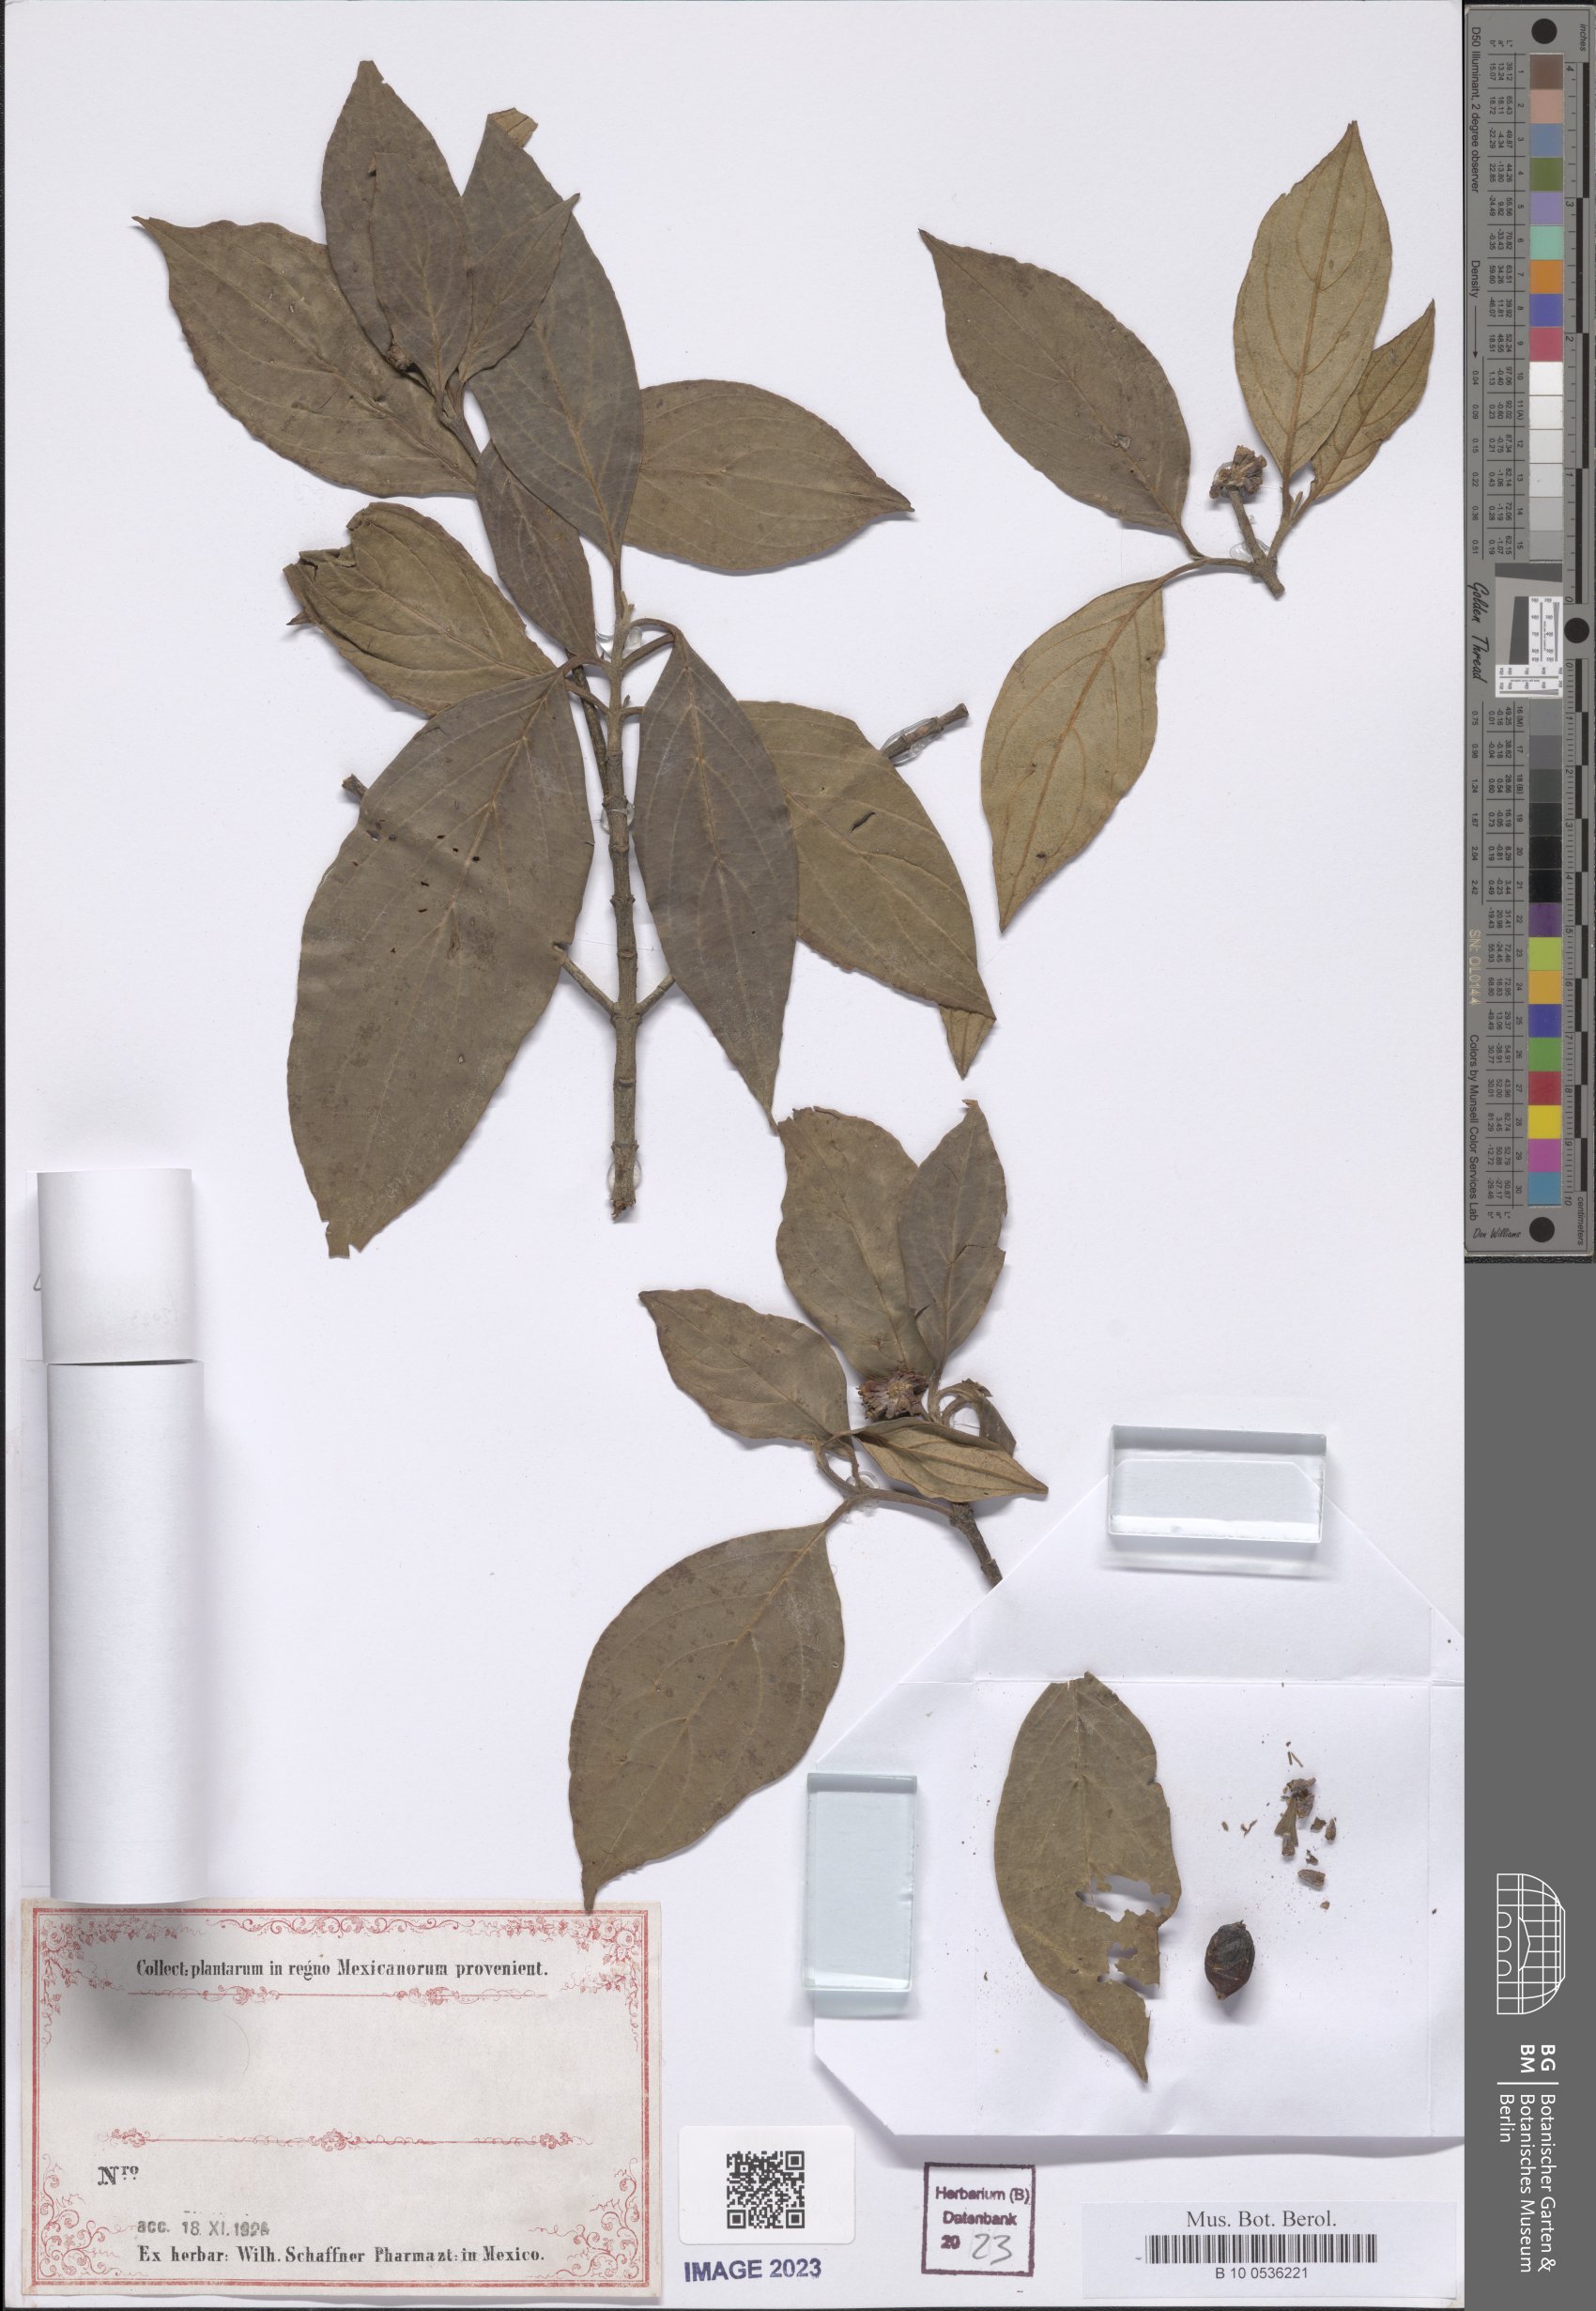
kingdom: Plantae
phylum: Tracheophyta
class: Magnoliopsida
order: Cornales
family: Cornaceae
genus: Cornus
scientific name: Cornus
